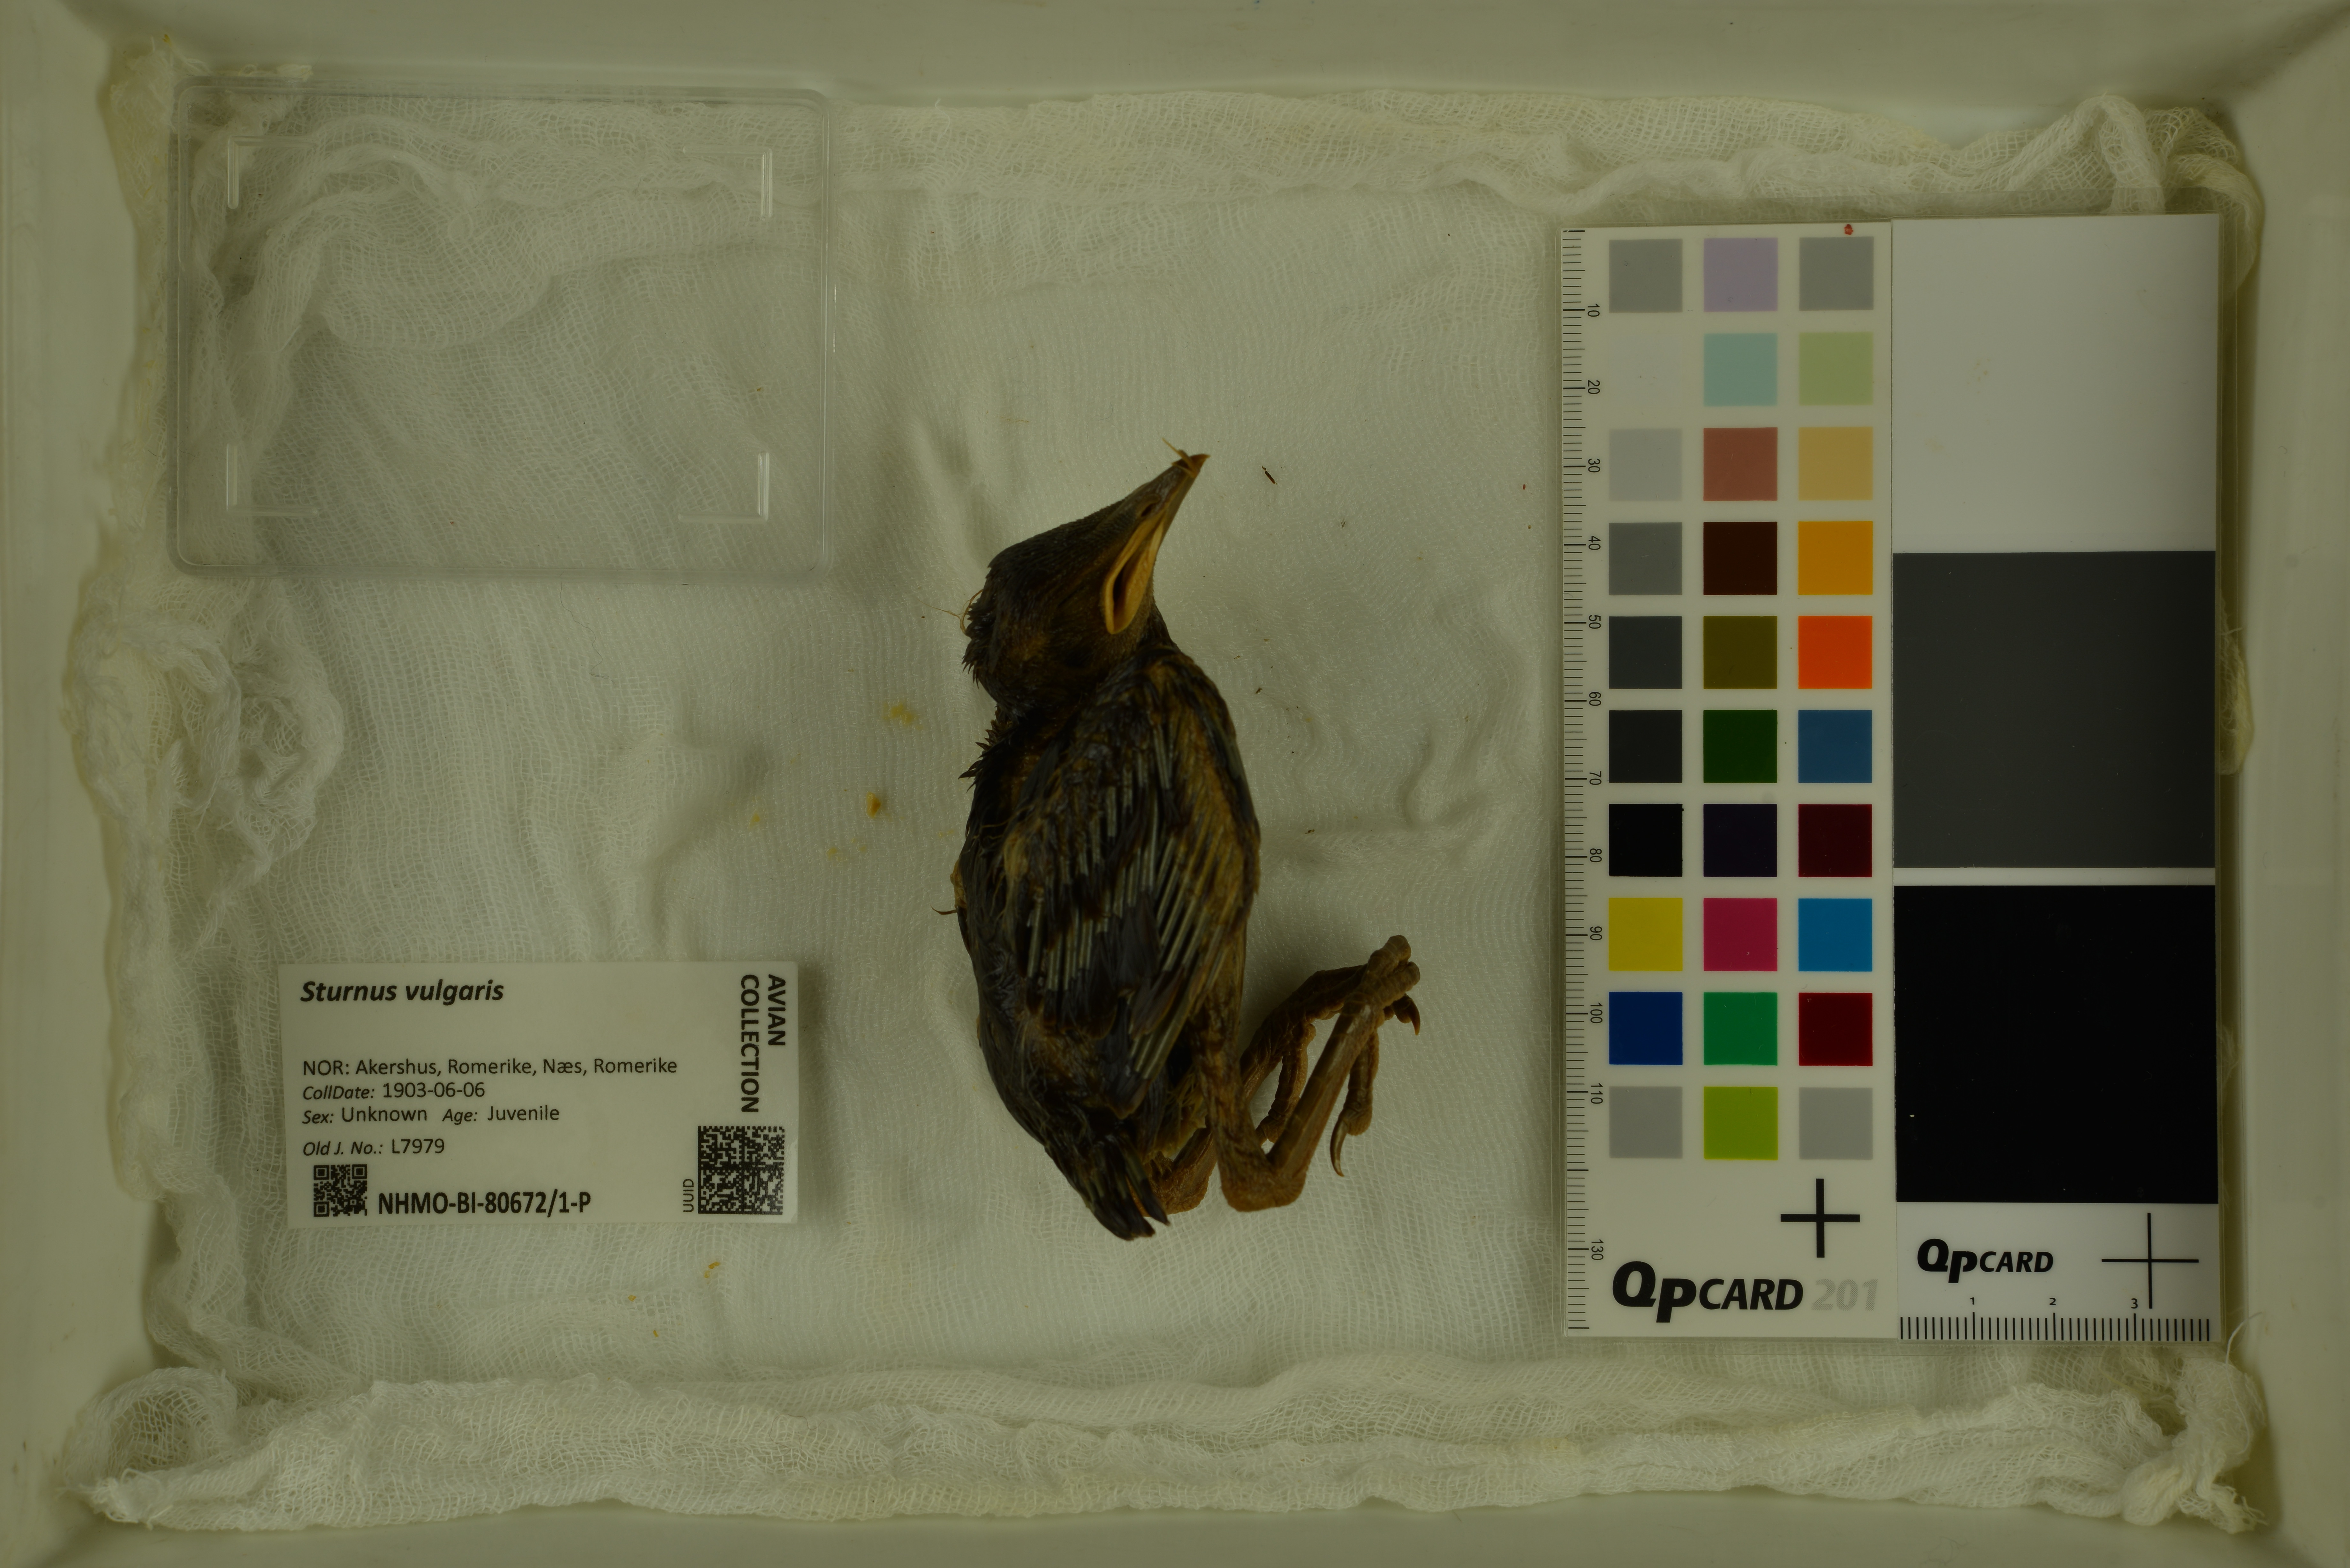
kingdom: Animalia
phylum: Chordata
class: Aves
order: Passeriformes
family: Sturnidae
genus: Sturnus
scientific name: Sturnus vulgaris
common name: Common starling
